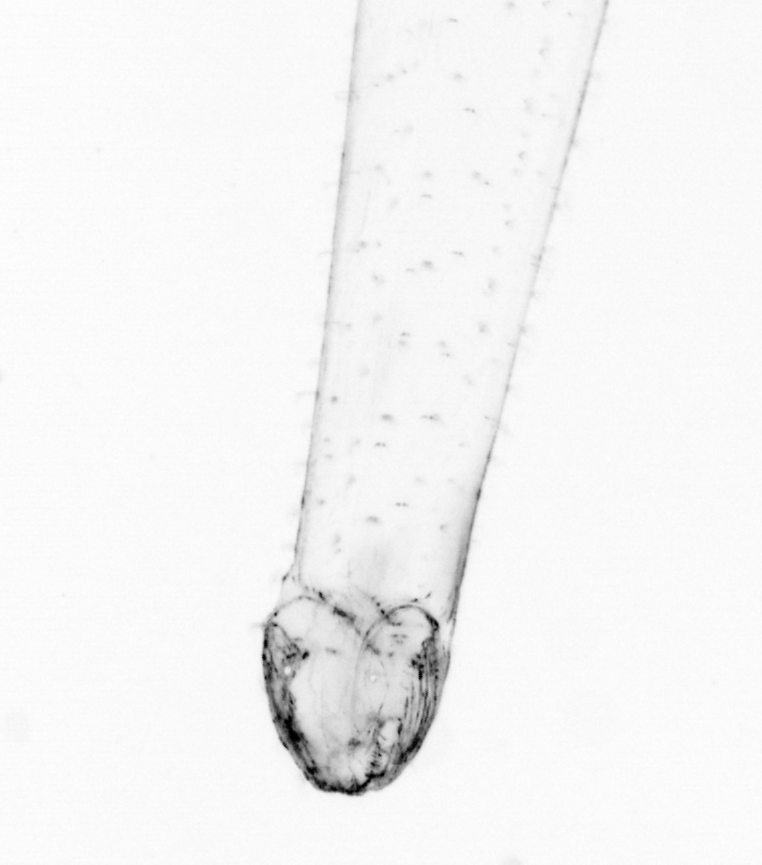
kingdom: Animalia
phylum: Chaetognatha
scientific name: Chaetognatha
